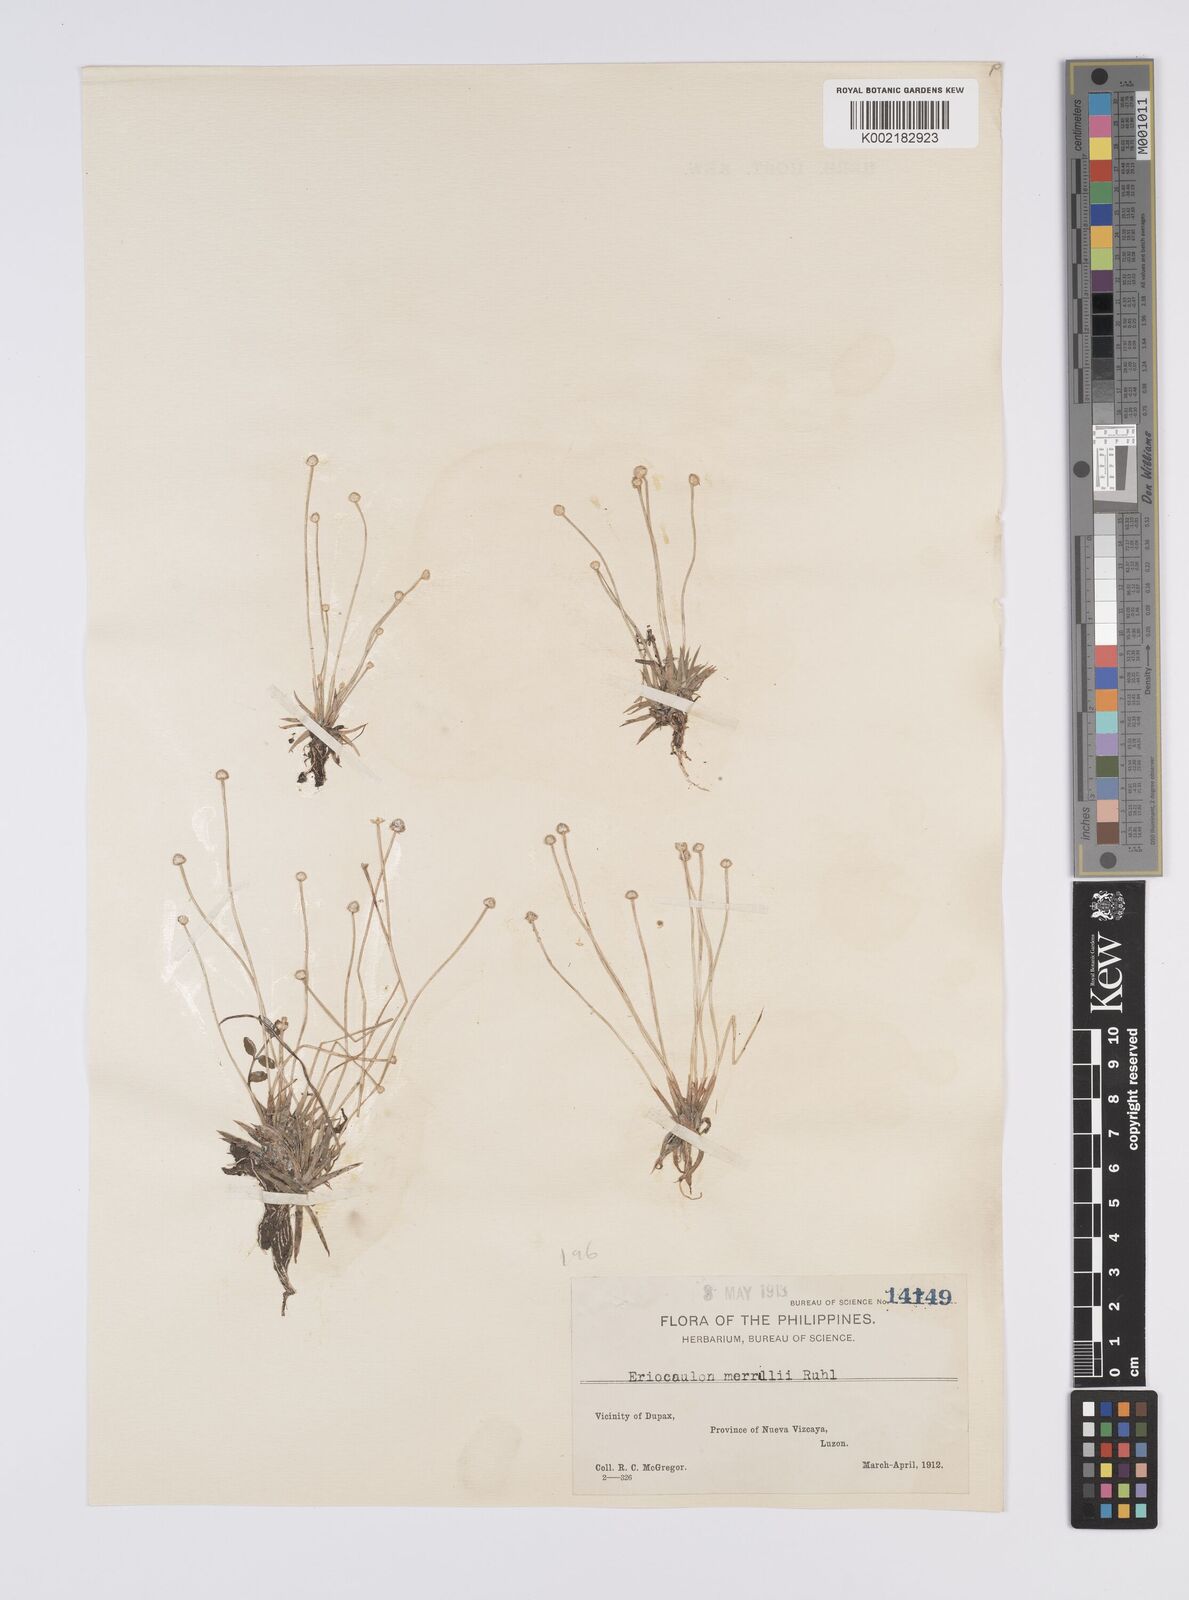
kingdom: Plantae
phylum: Tracheophyta
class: Liliopsida
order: Poales
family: Eriocaulaceae
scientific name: Eriocaulaceae
